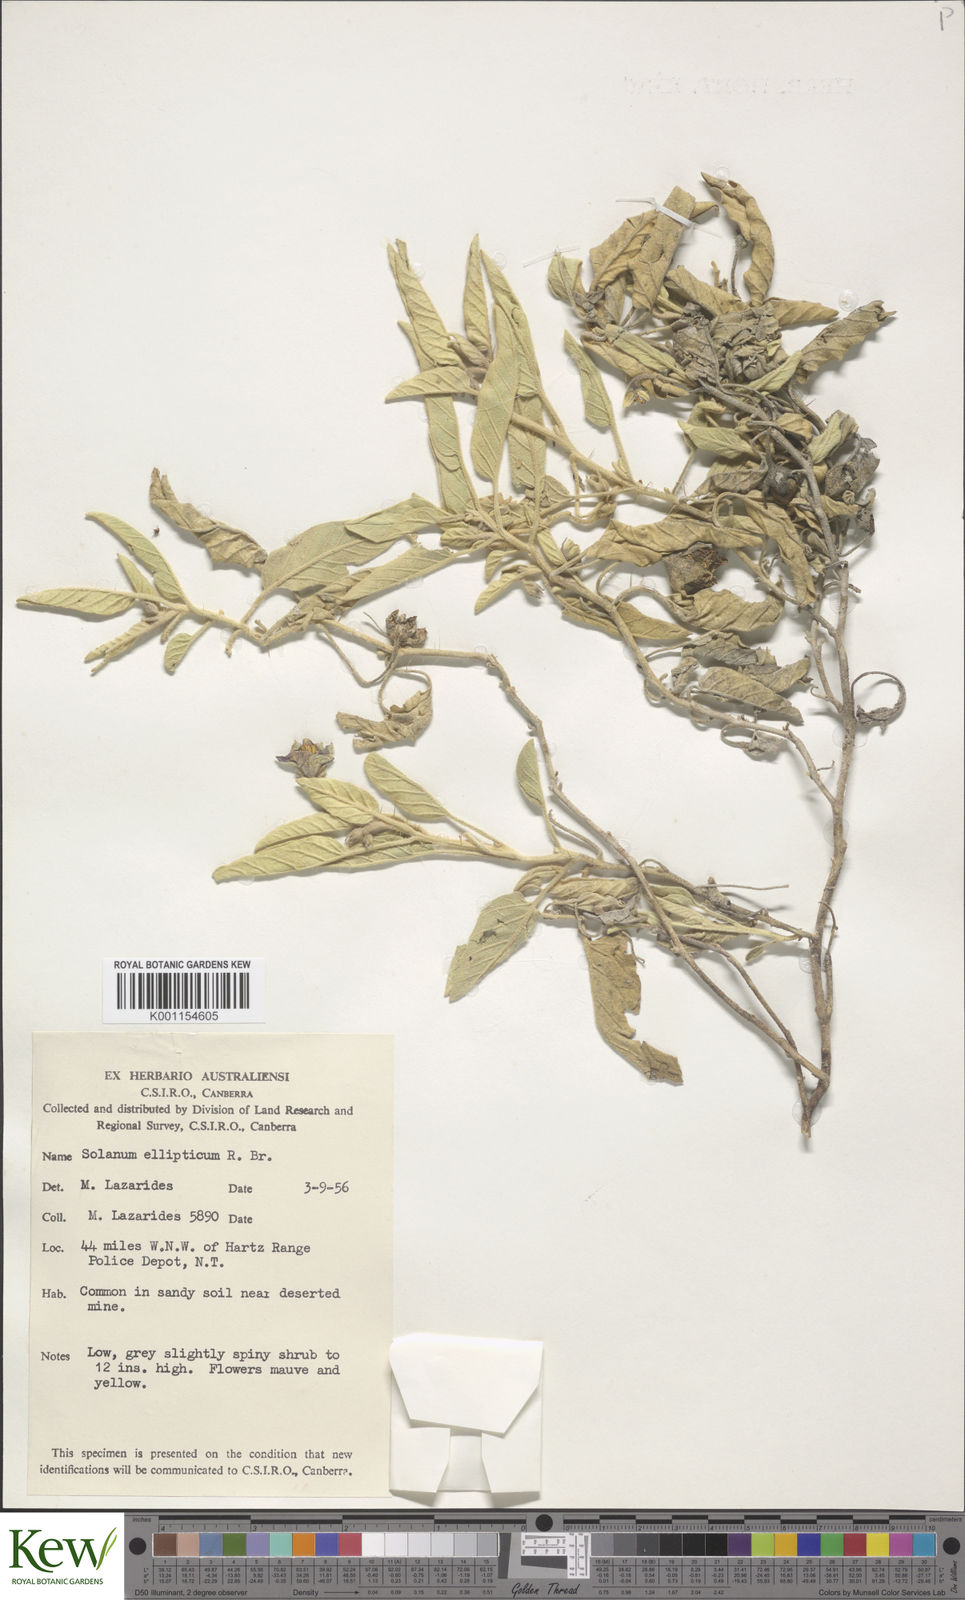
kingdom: Plantae
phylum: Tracheophyta
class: Magnoliopsida
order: Solanales
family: Solanaceae
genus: Solanum
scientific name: Solanum ellipticum
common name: Potato-bush
